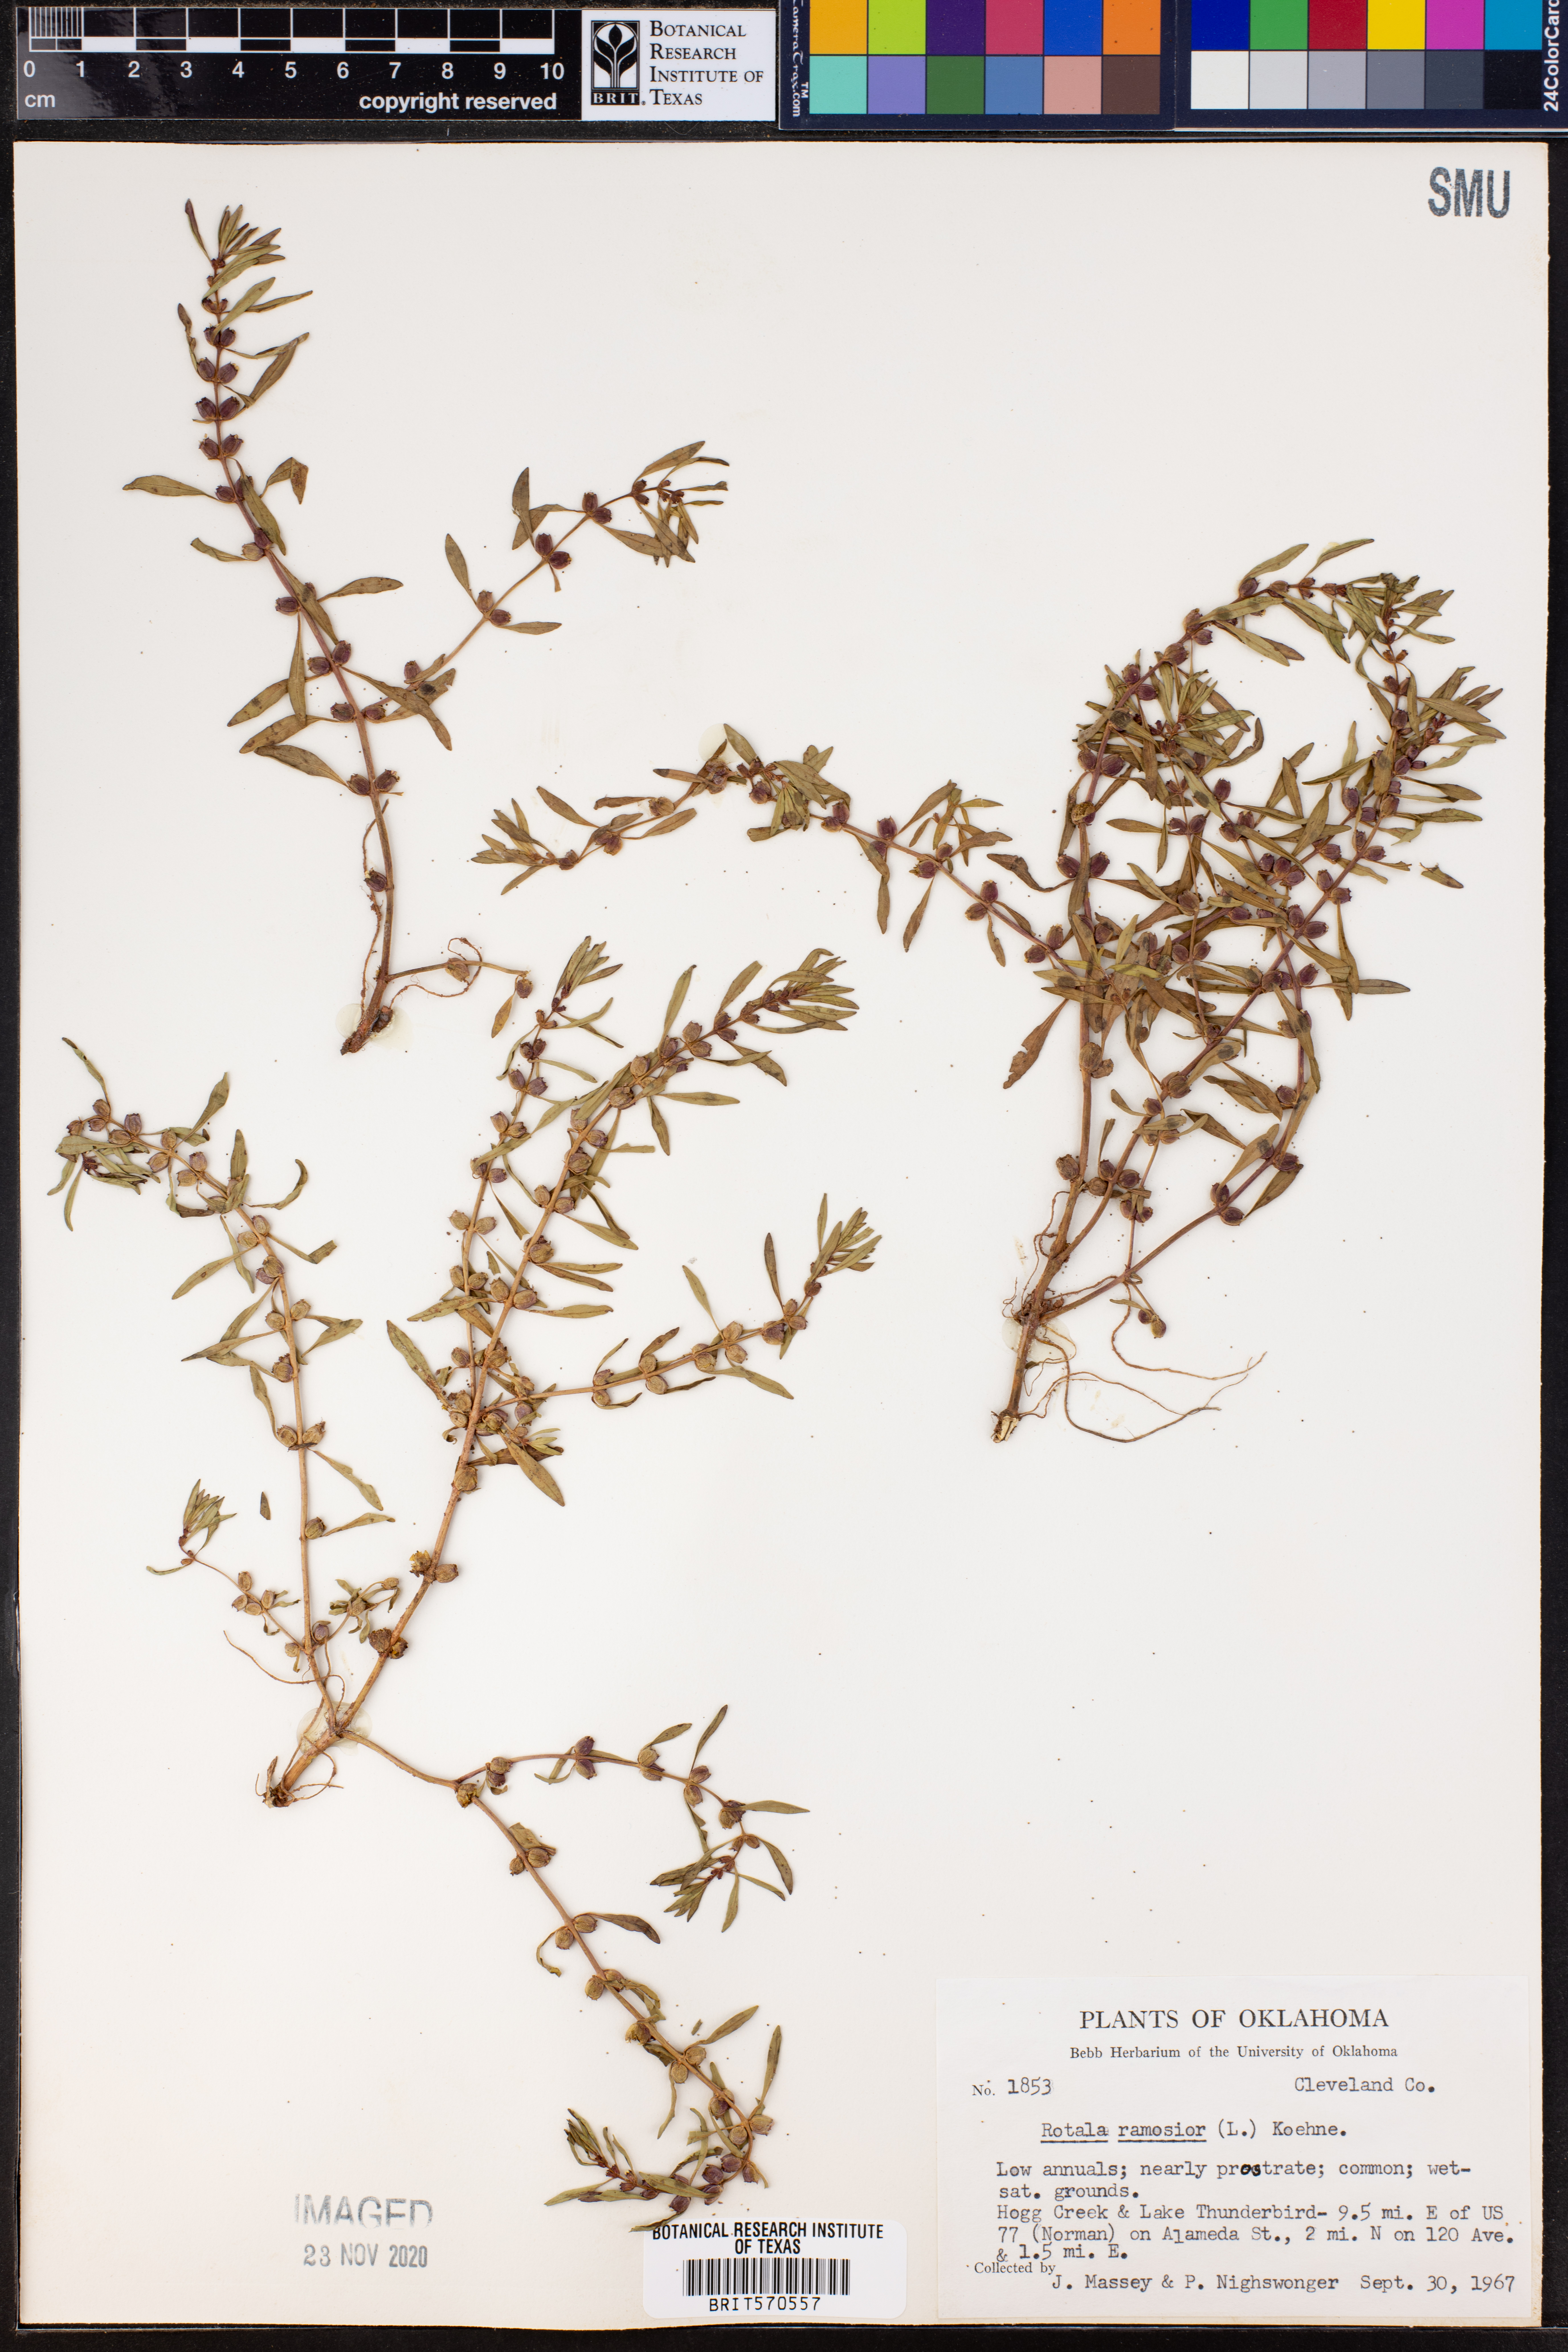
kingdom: Plantae
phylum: Tracheophyta
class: Magnoliopsida
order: Myrtales
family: Lythraceae
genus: Rotala
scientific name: Rotala ramosior
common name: Lowland rotala
